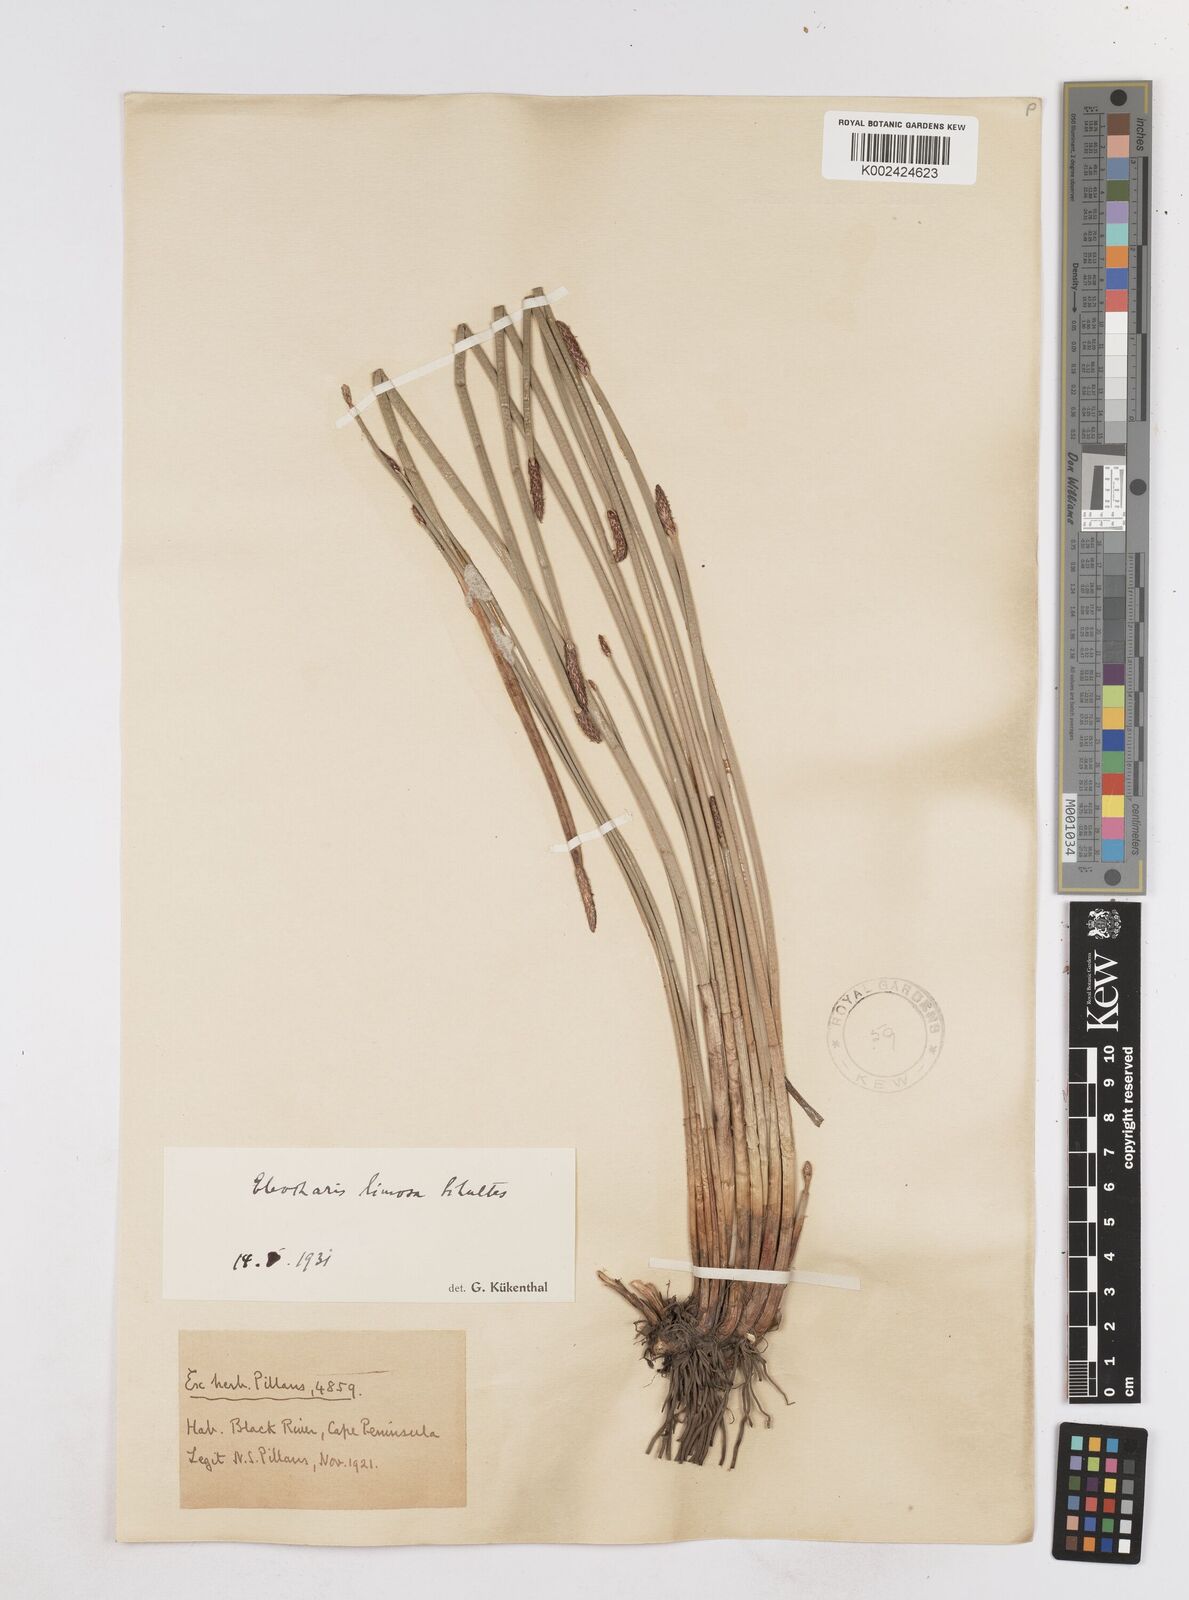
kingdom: Plantae
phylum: Tracheophyta
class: Liliopsida
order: Poales
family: Cyperaceae
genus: Eleocharis
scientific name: Eleocharis limosa
